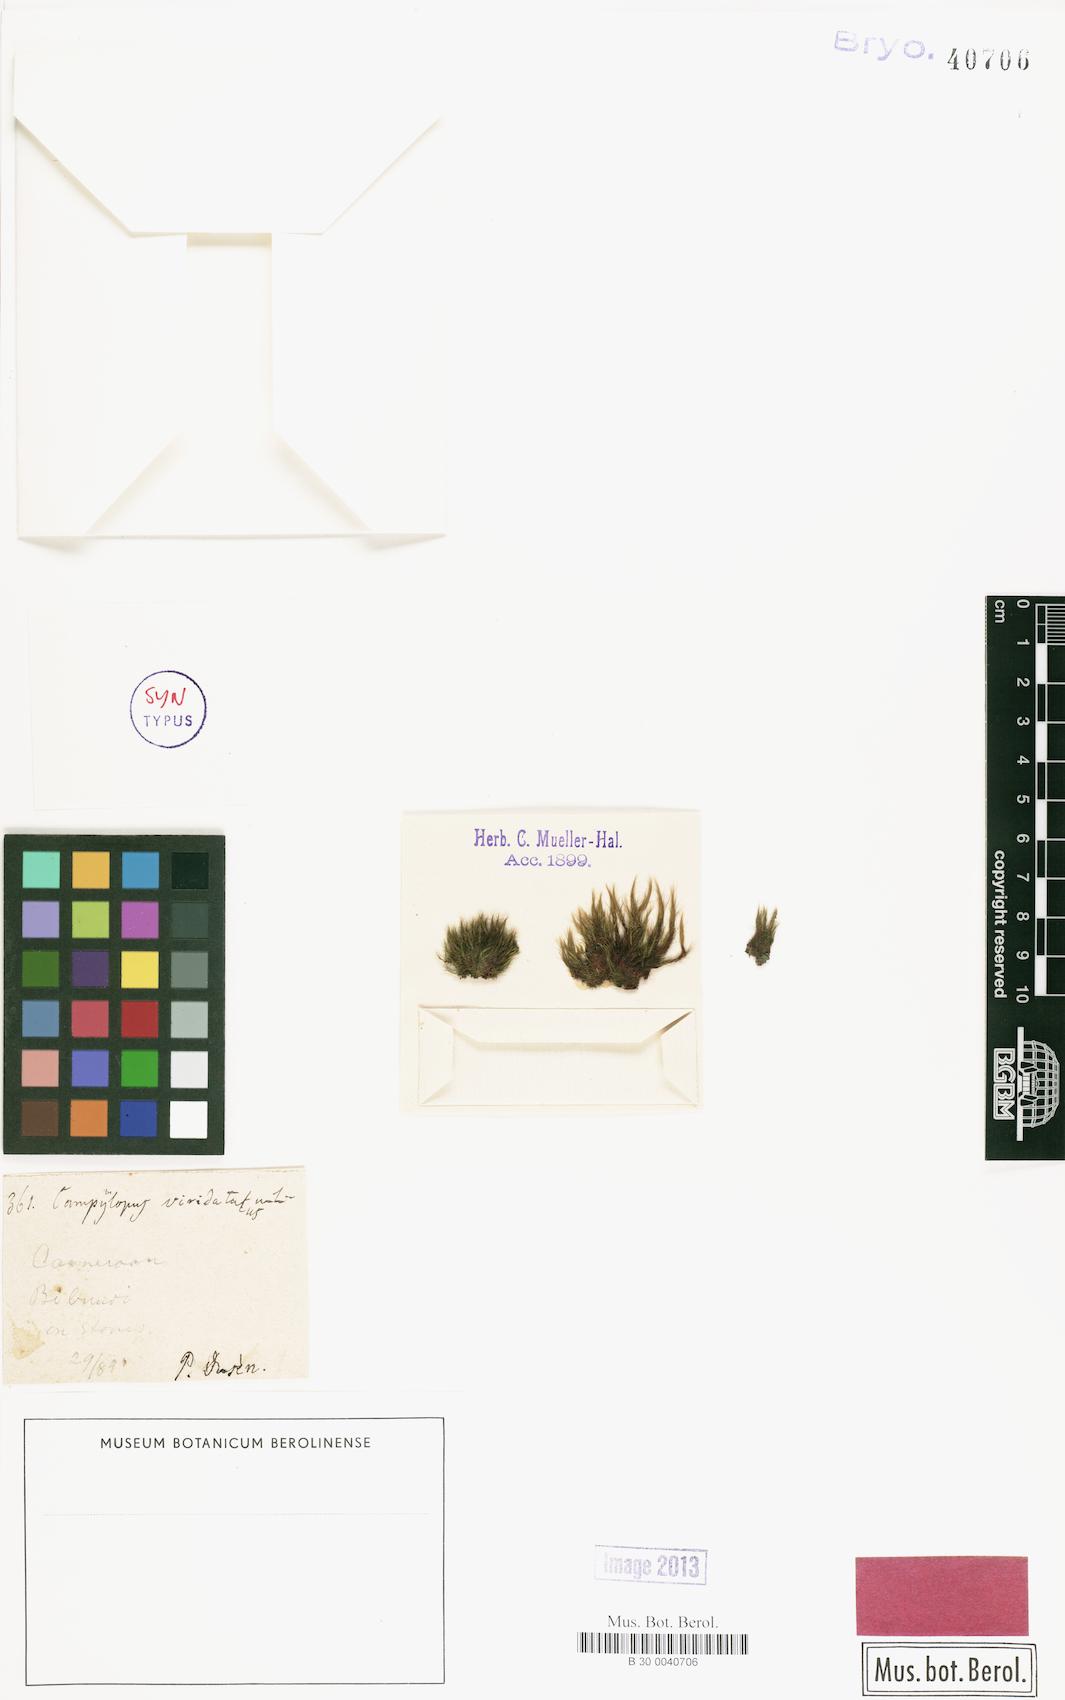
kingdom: Plantae
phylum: Bryophyta
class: Bryopsida
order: Dicranales
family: Leucobryaceae
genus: Campylopus
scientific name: Campylopus savannarum
